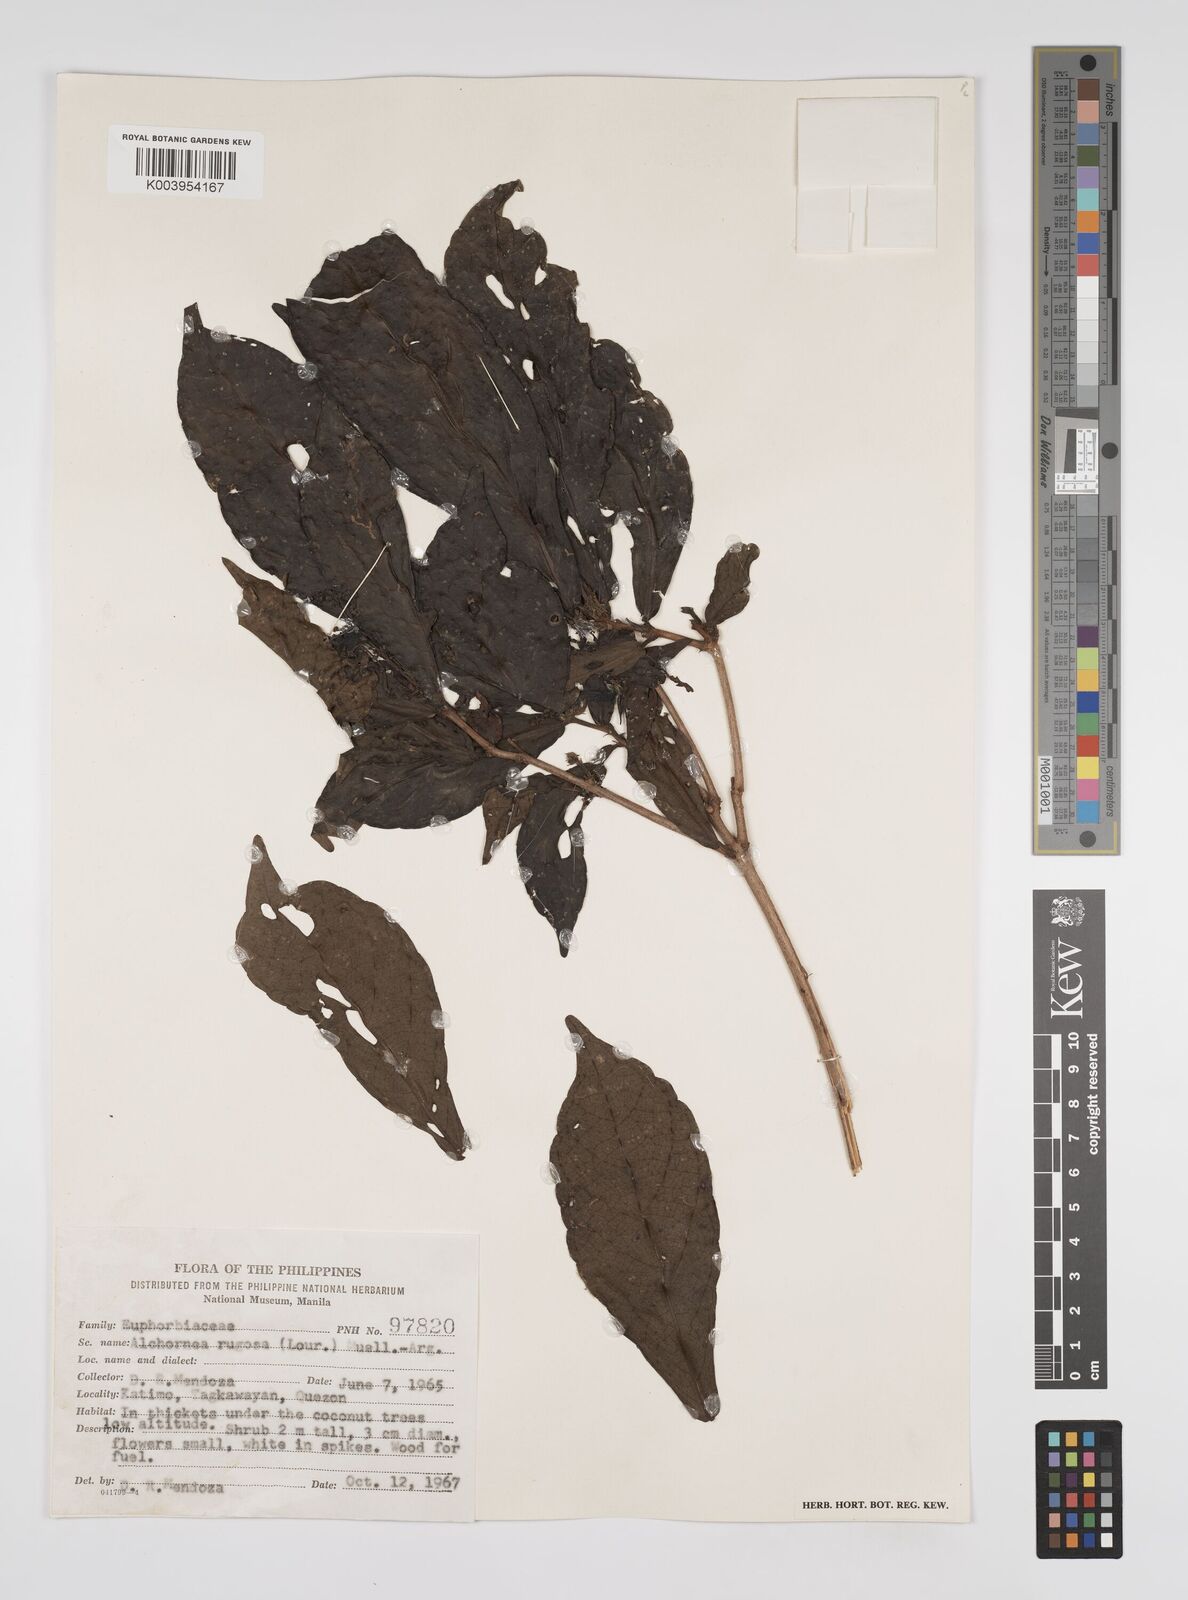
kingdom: Plantae
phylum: Tracheophyta
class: Magnoliopsida
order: Malpighiales
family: Euphorbiaceae
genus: Alchornea
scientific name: Alchornea rugosa
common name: Alchorntree
